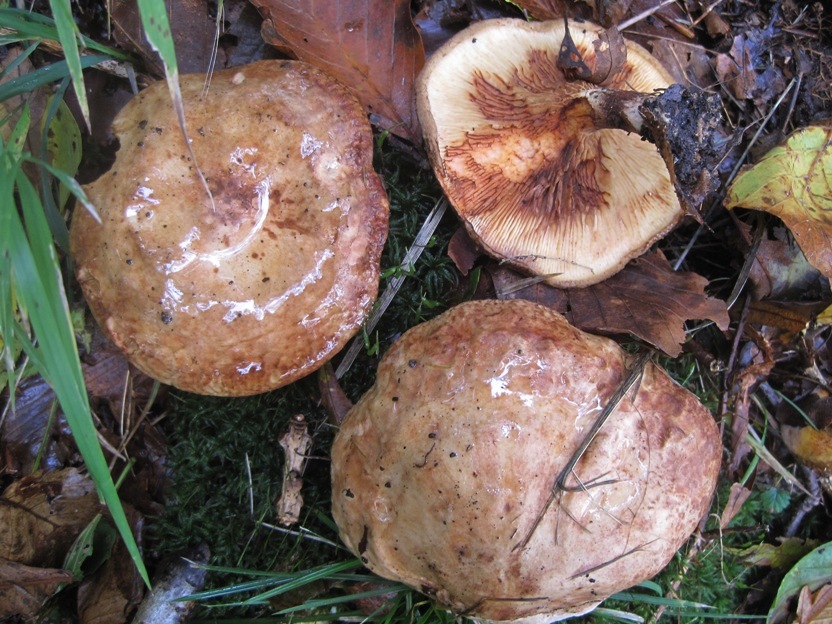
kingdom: Fungi
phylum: Basidiomycota
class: Agaricomycetes
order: Boletales
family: Paxillaceae
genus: Paxillus
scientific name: Paxillus rubicundulus
